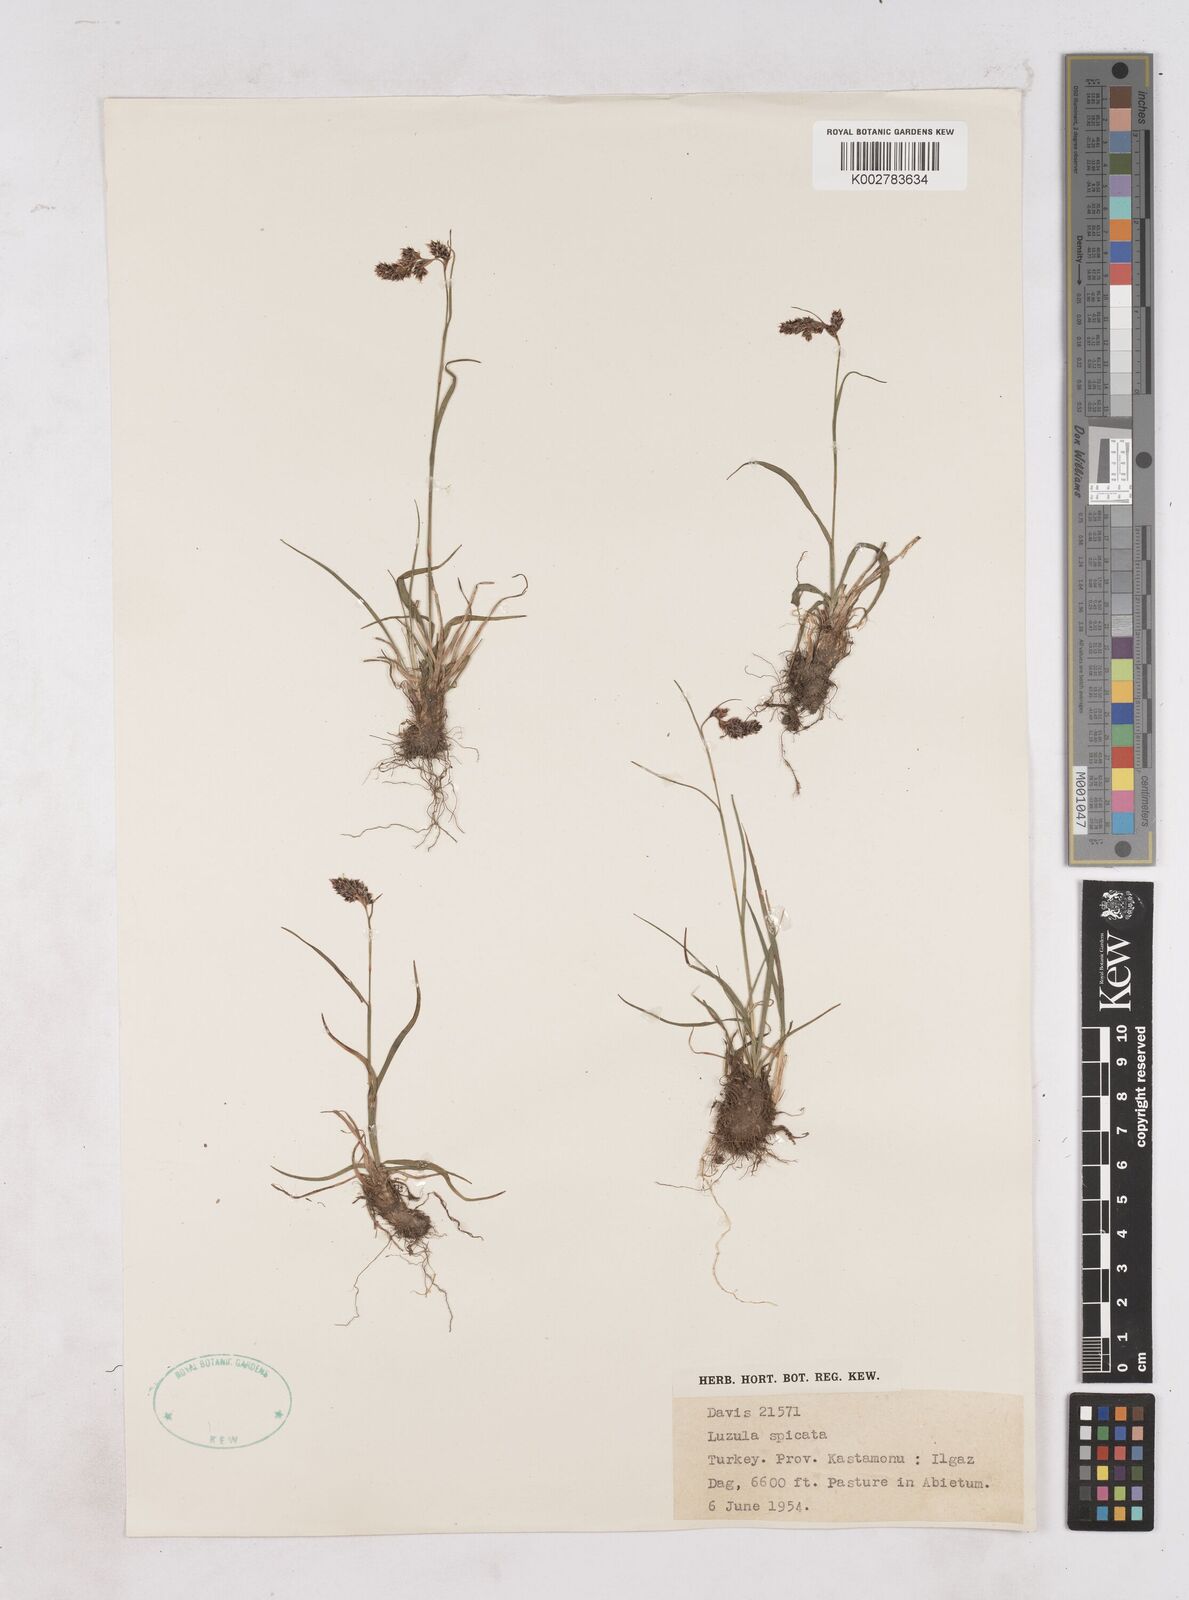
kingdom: Plantae
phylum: Tracheophyta
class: Liliopsida
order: Poales
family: Juncaceae
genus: Luzula
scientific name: Luzula spicata
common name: Spiked wood-rush
